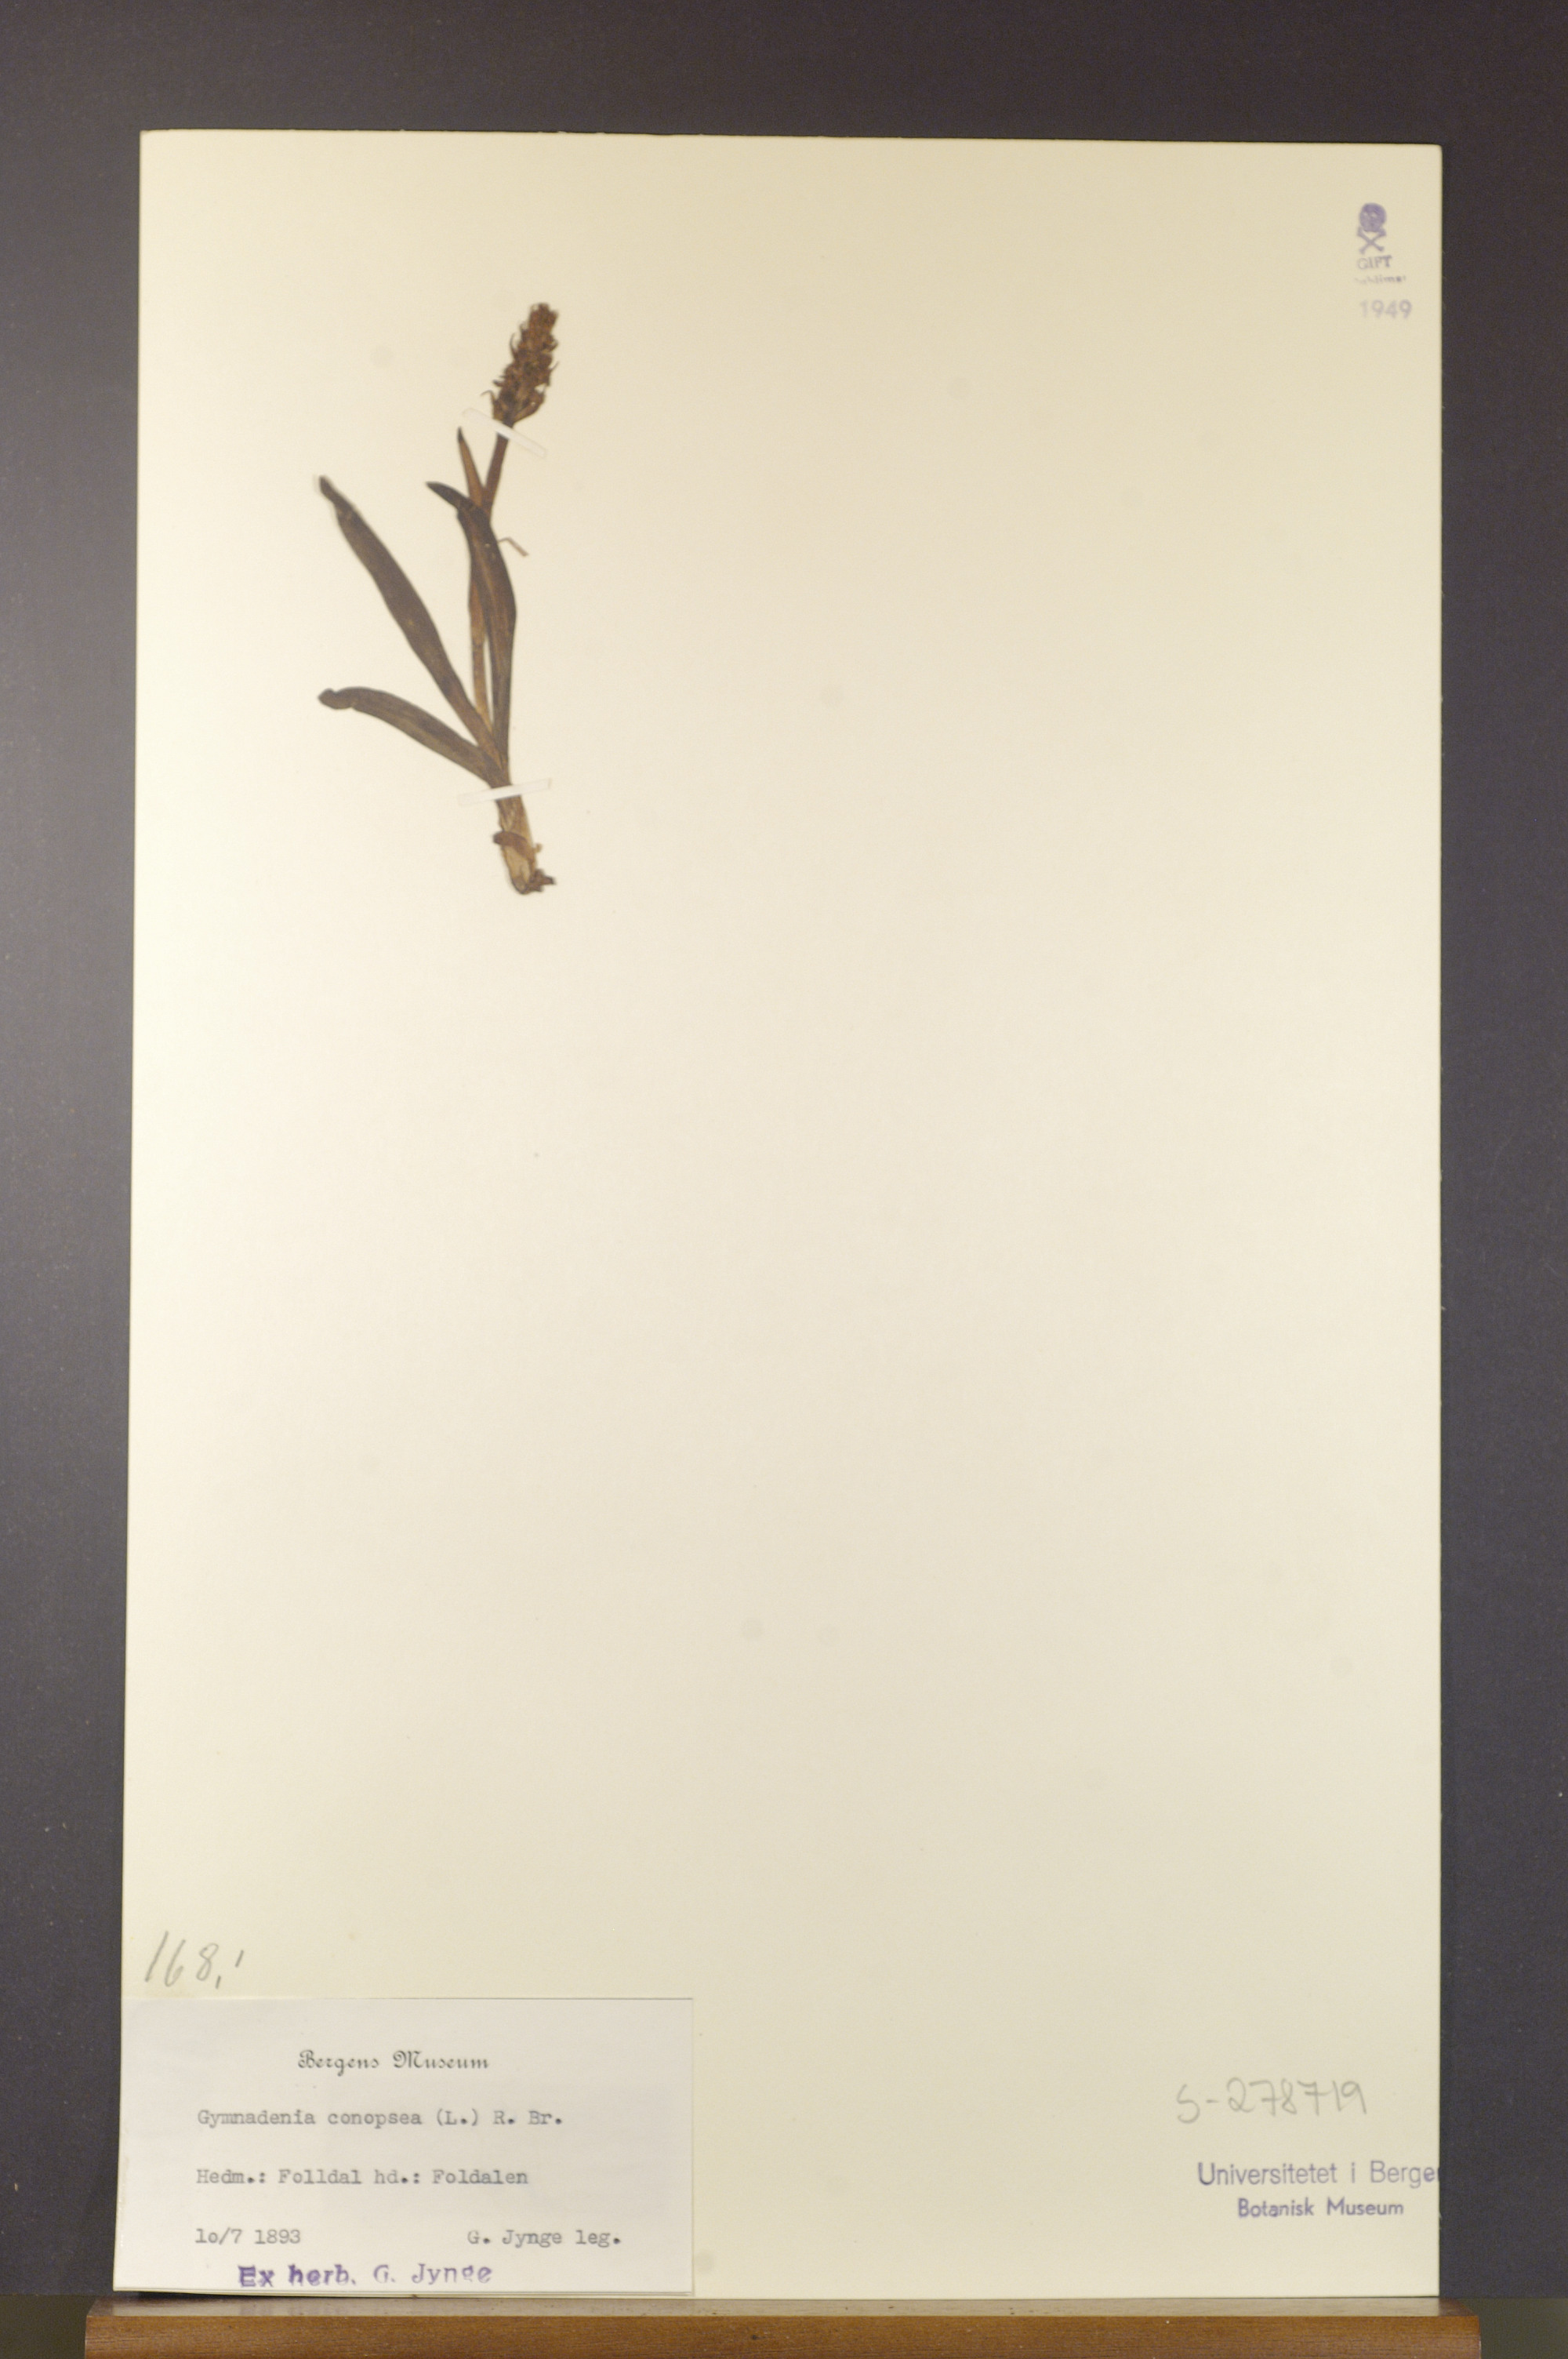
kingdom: Plantae
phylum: Tracheophyta
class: Liliopsida
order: Asparagales
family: Orchidaceae
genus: Gymnadenia
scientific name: Gymnadenia conopsea
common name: Fragrant orchid
